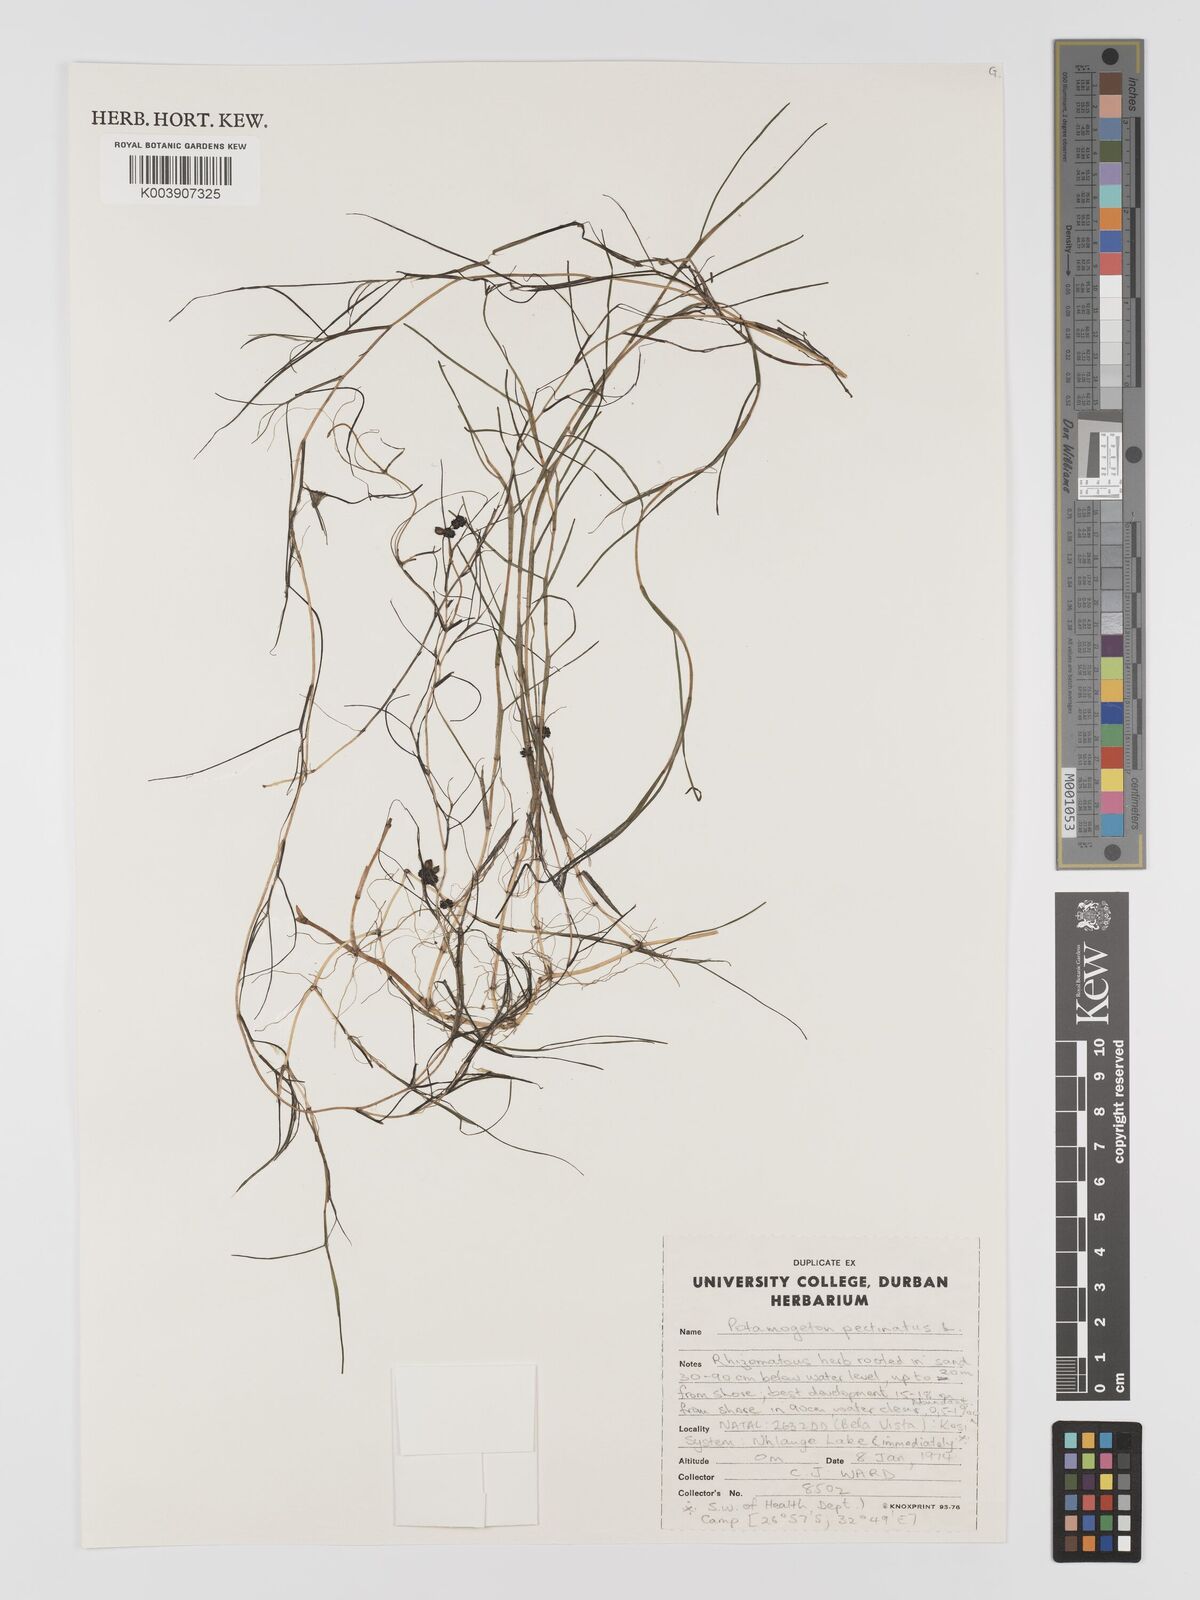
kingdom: Plantae
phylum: Tracheophyta
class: Liliopsida
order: Alismatales
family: Potamogetonaceae
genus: Stuckenia
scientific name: Stuckenia pectinata
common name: Sago pondweed
